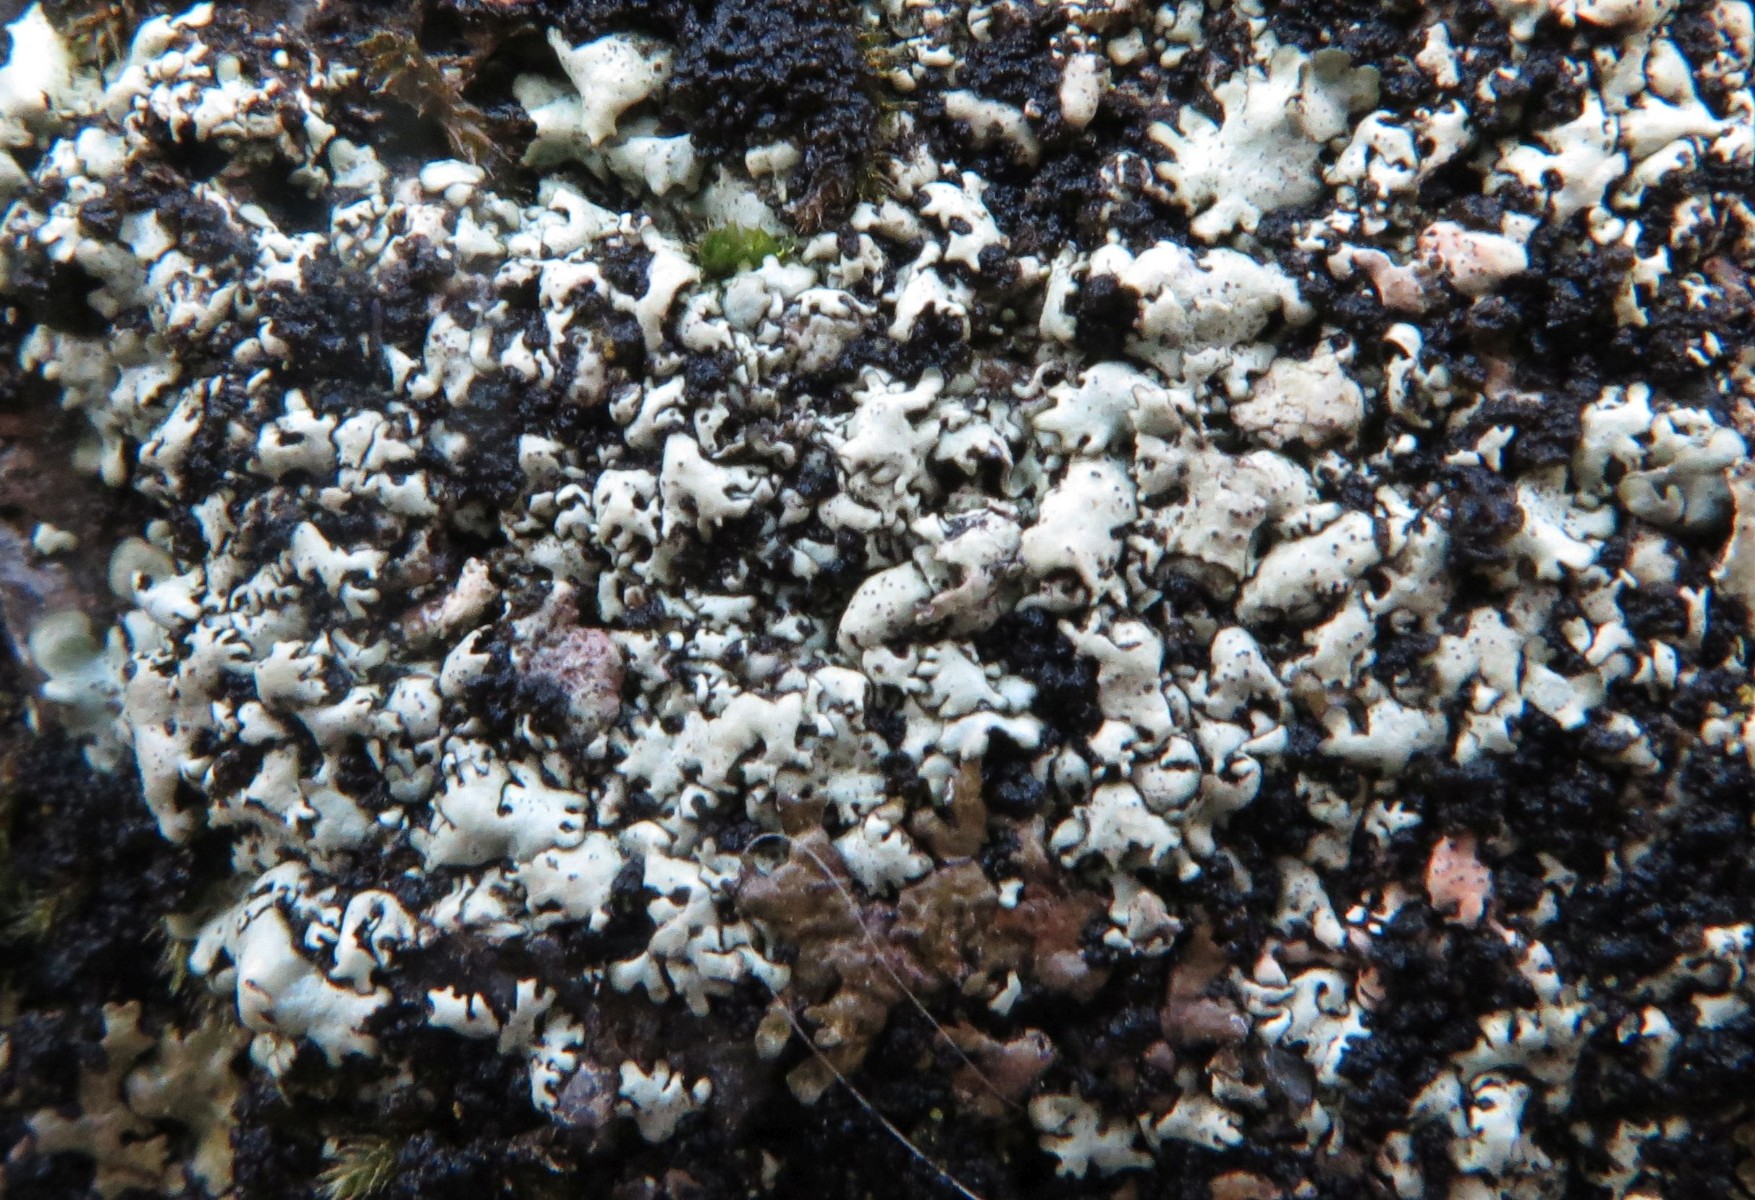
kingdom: Fungi
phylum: Ascomycota
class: Lecanoromycetes
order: Lecanorales
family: Parmeliaceae
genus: Xanthoparmelia
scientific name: Xanthoparmelia conspersa
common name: messing-skållav
